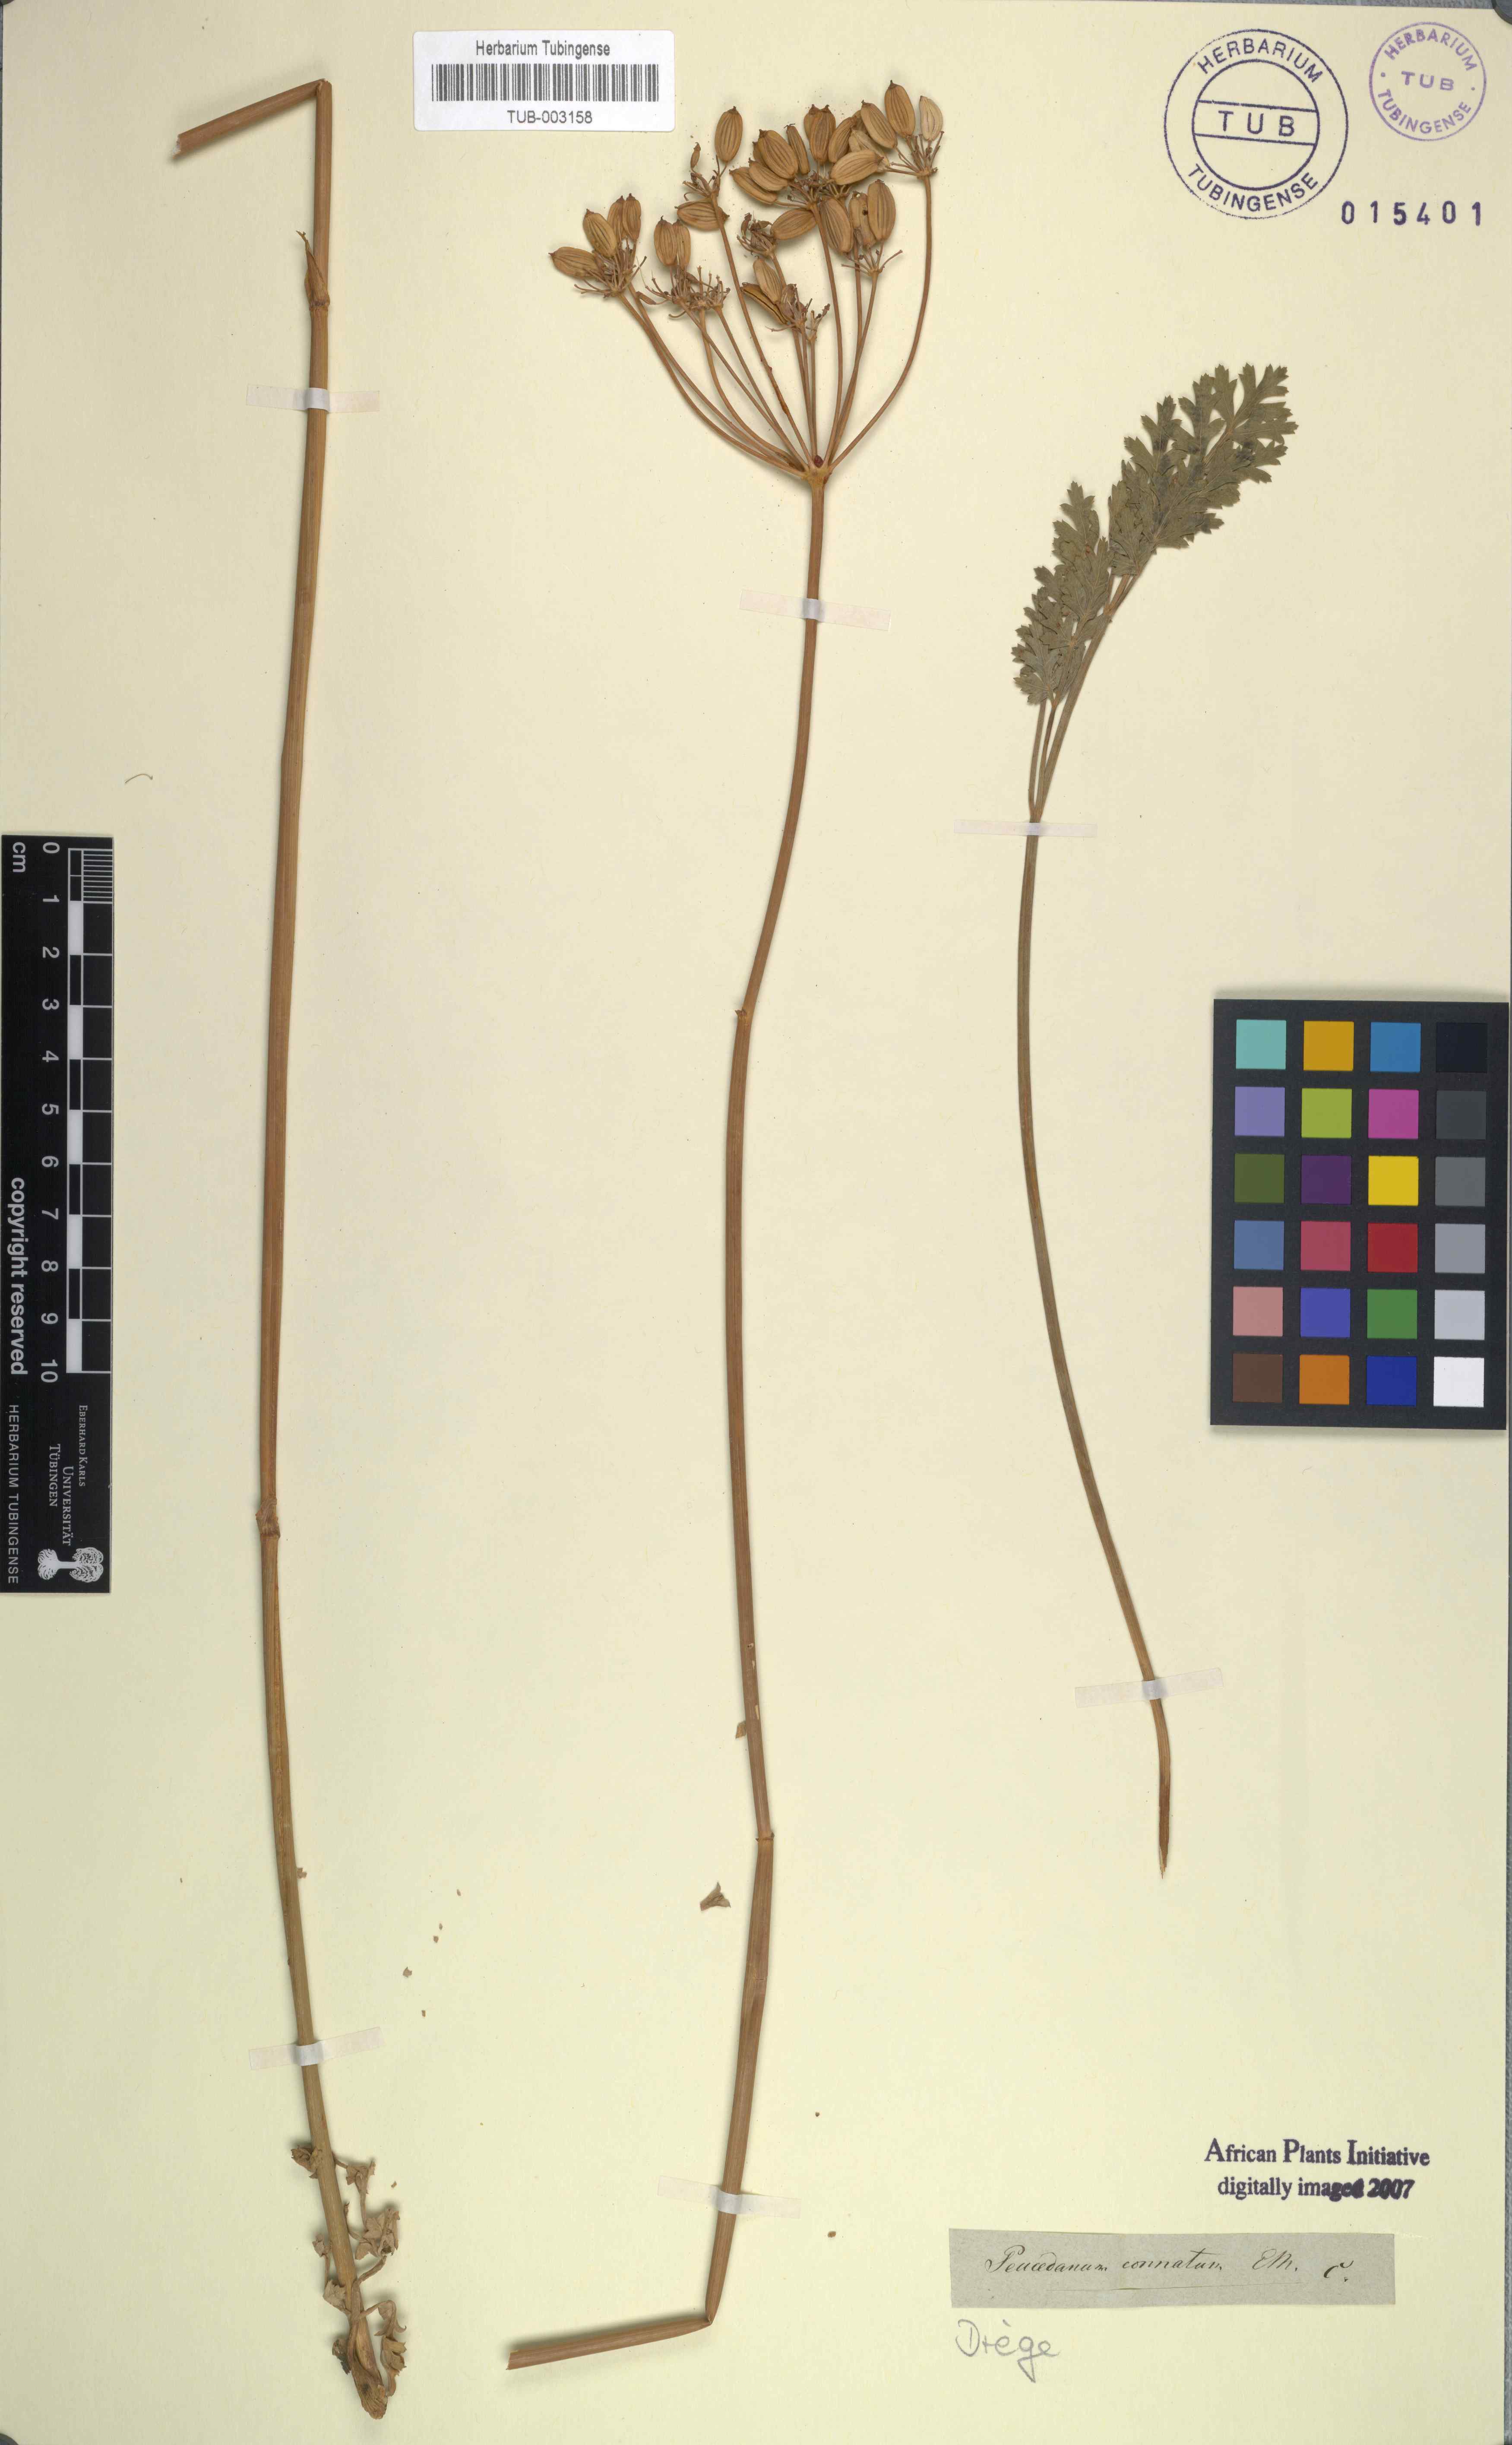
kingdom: Plantae
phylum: Tracheophyta
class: Magnoliopsida
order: Apiales
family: Apiaceae
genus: Afrosciadium
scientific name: Afrosciadium caffrum
